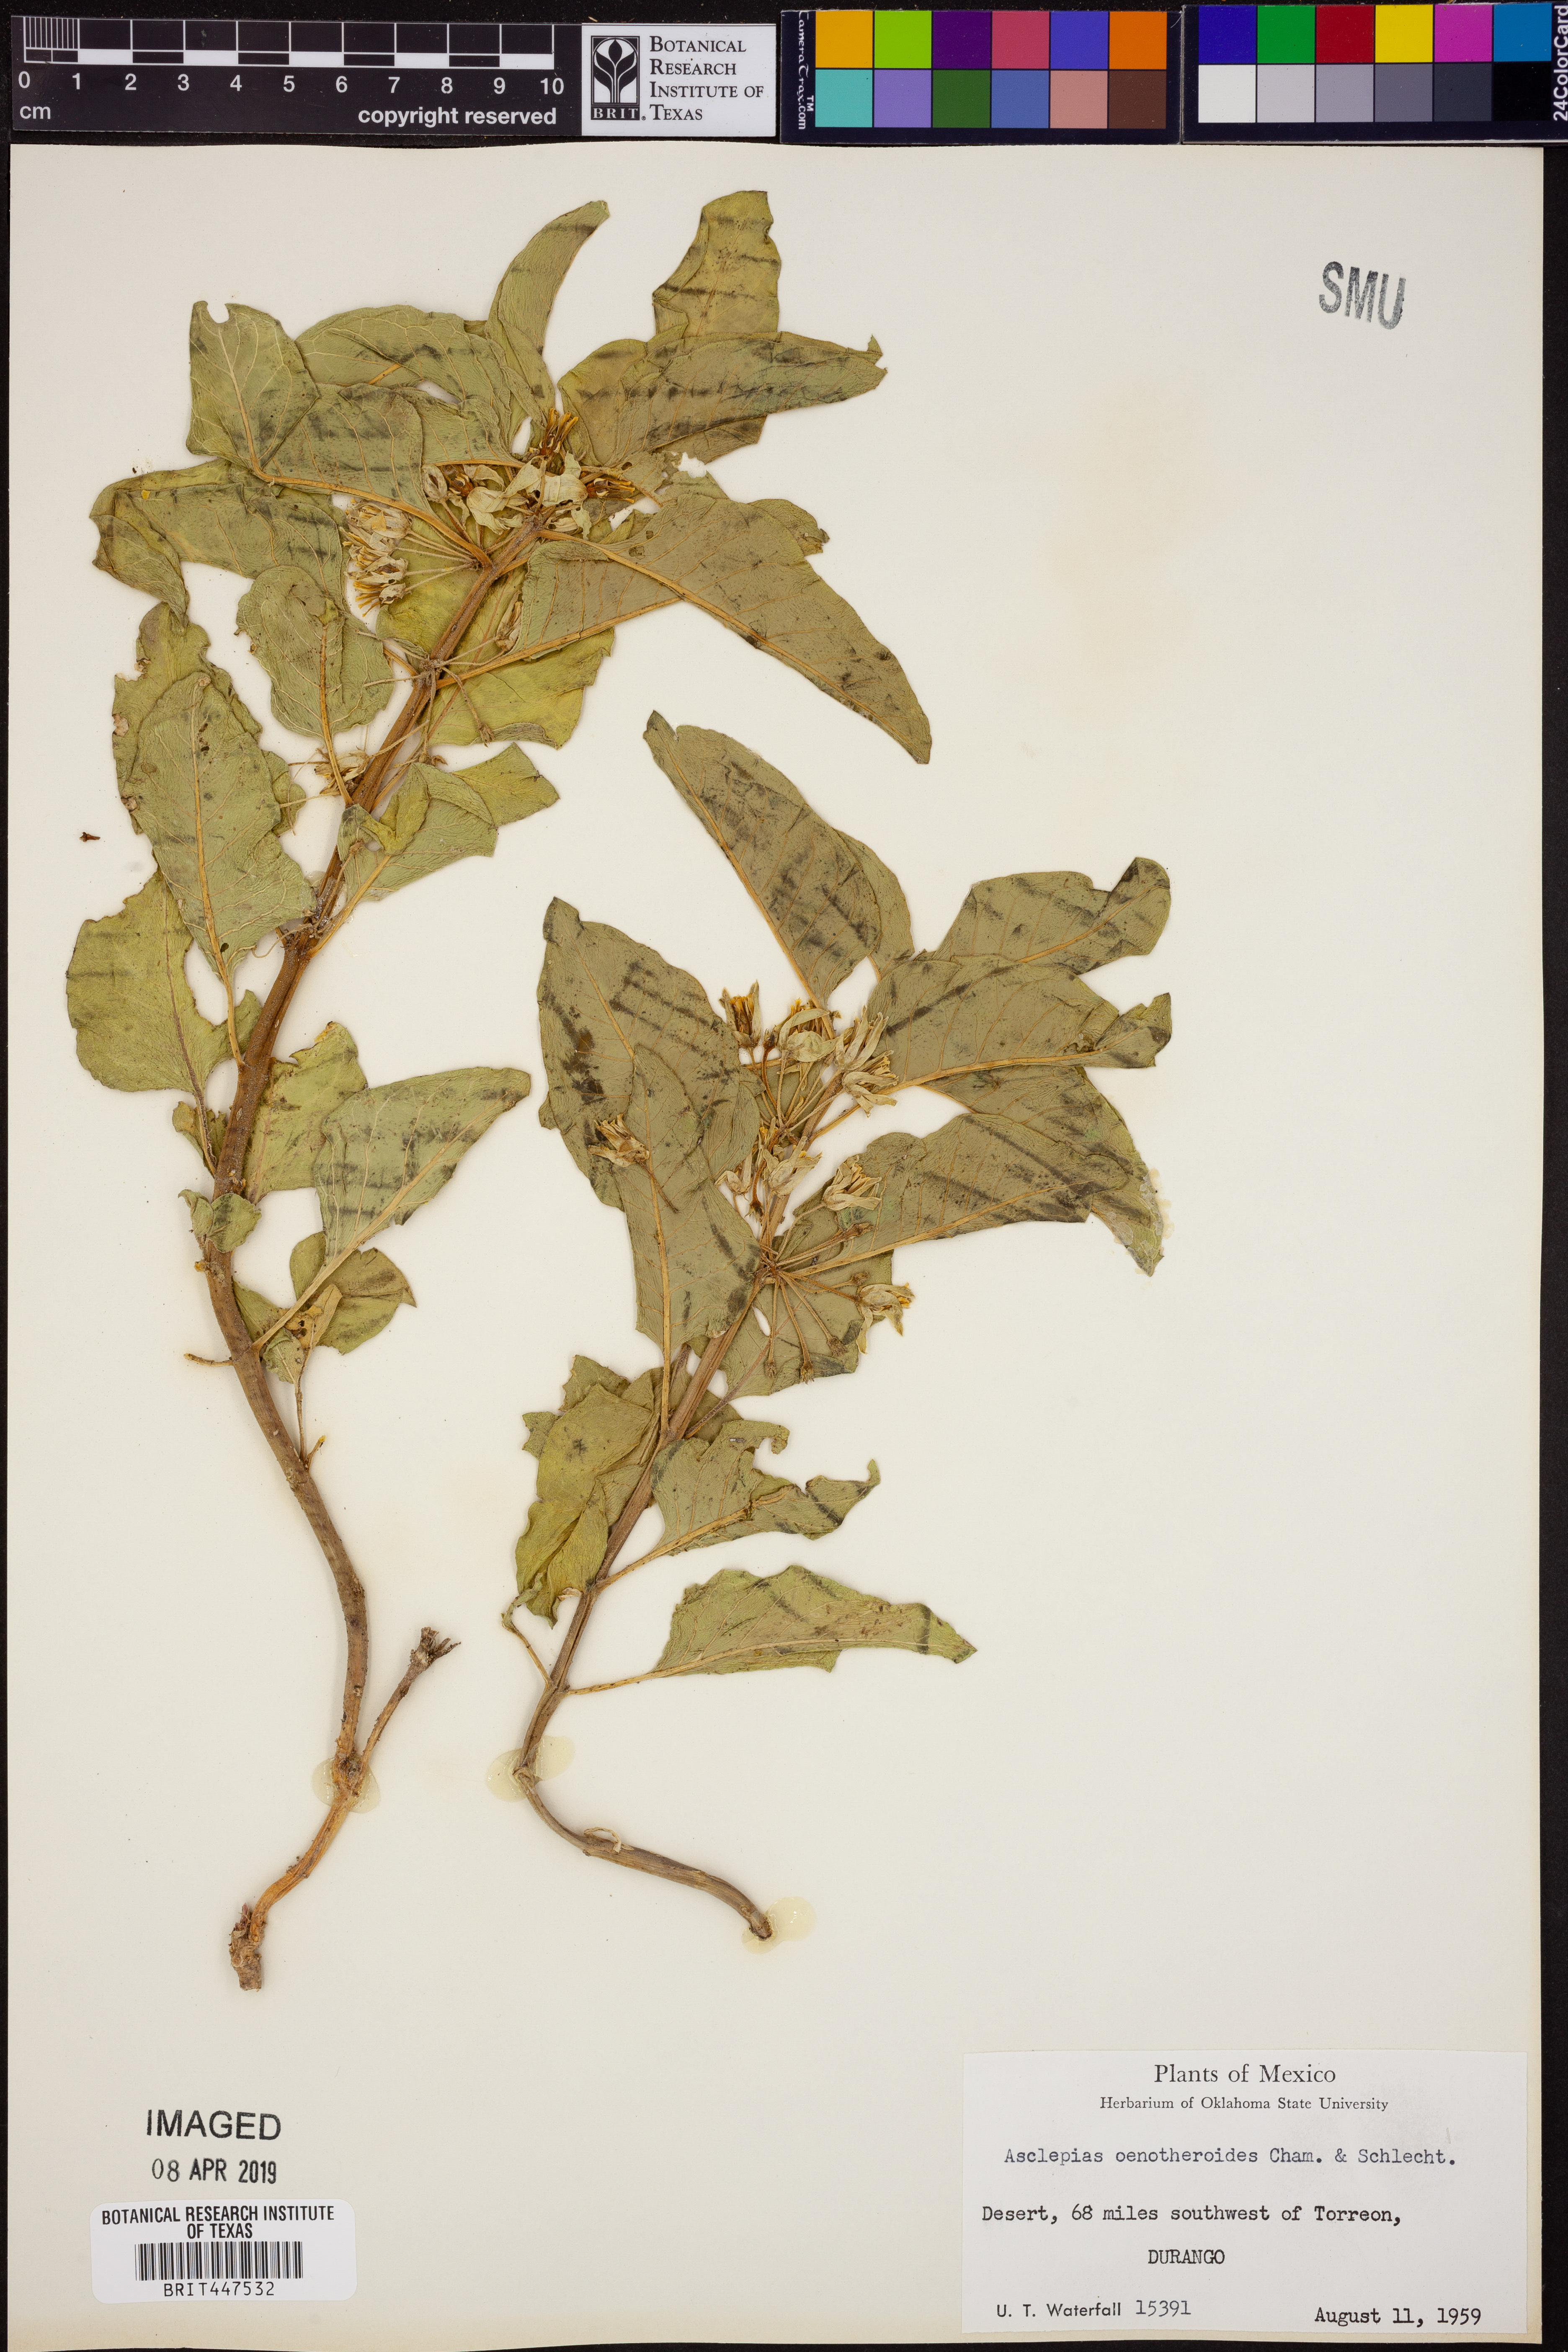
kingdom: Plantae
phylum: Tracheophyta
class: Magnoliopsida
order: Gentianales
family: Apocynaceae
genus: Asclepias
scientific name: Asclepias oenotheroides
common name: Zizotes milkweed
